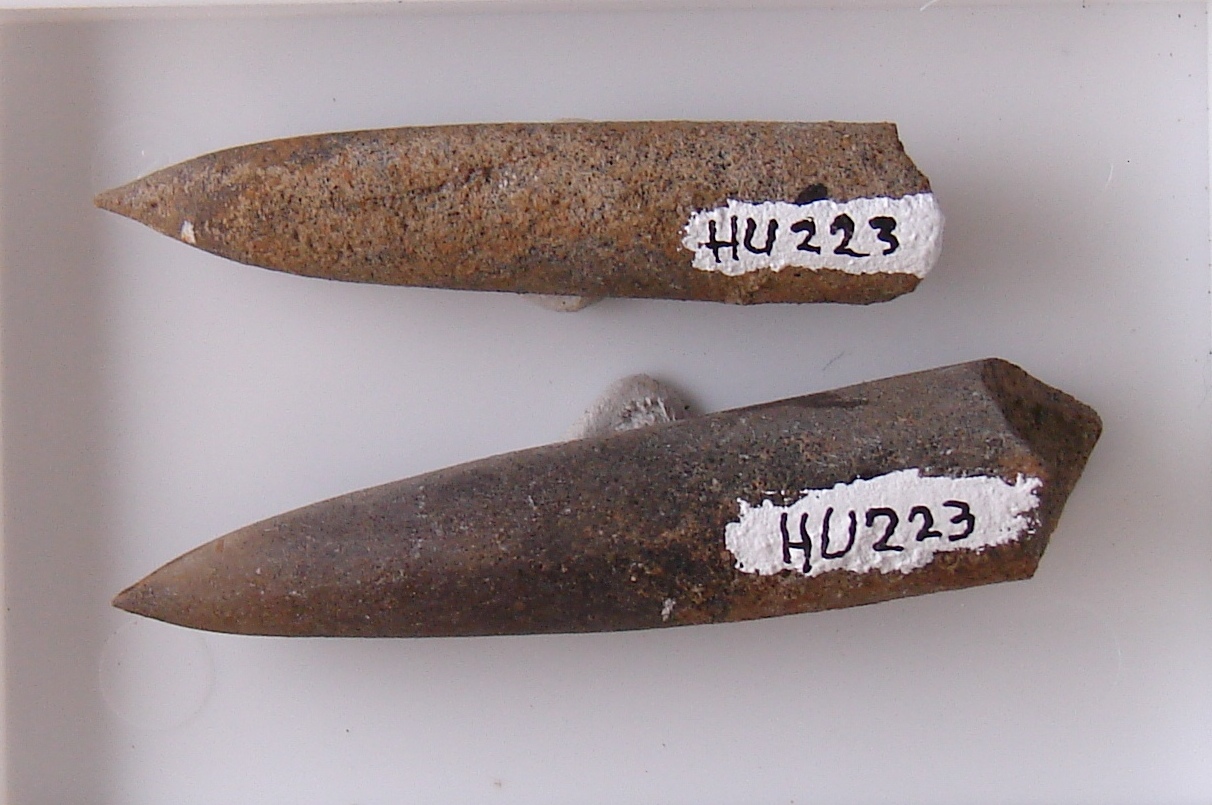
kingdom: Animalia
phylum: Mollusca
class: Cephalopoda
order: Belemnitida
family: Passaloteuthidae
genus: Brevibelus
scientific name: Brevibelus breviformis
